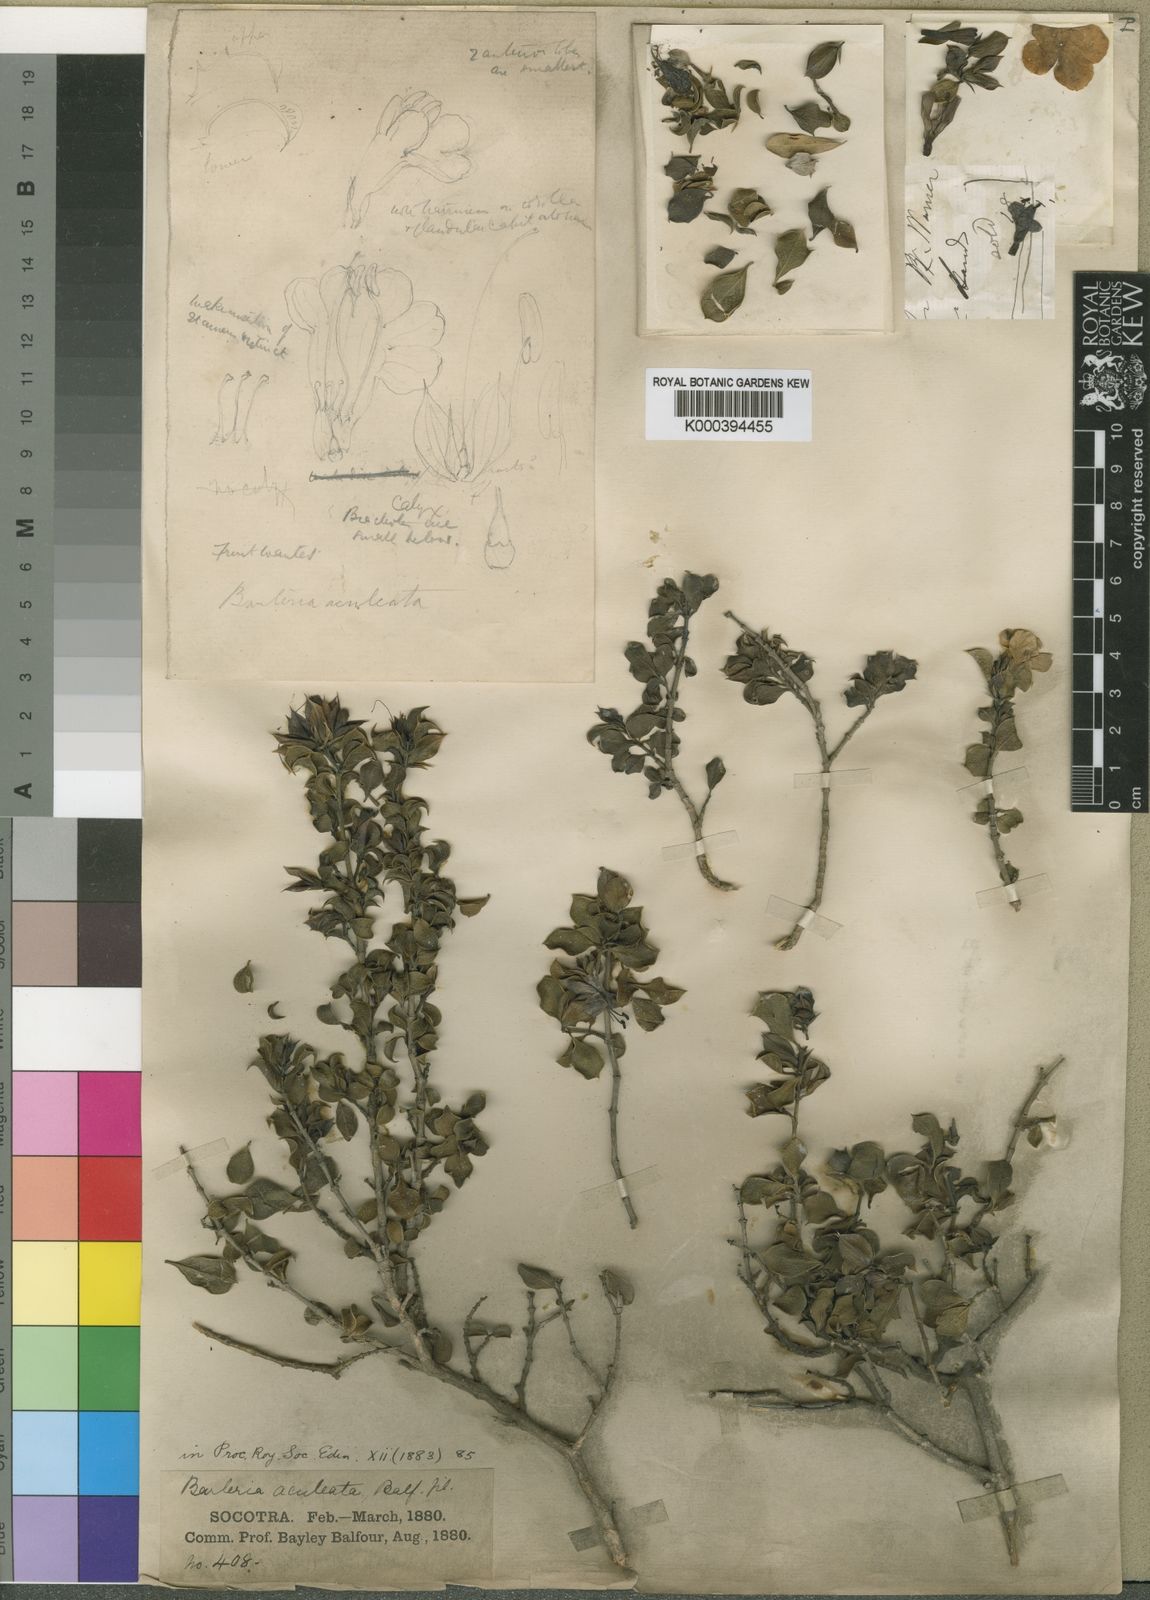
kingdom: Plantae
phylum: Tracheophyta
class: Magnoliopsida
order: Lamiales
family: Acanthaceae
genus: Barleria
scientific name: Barleria aculeata
